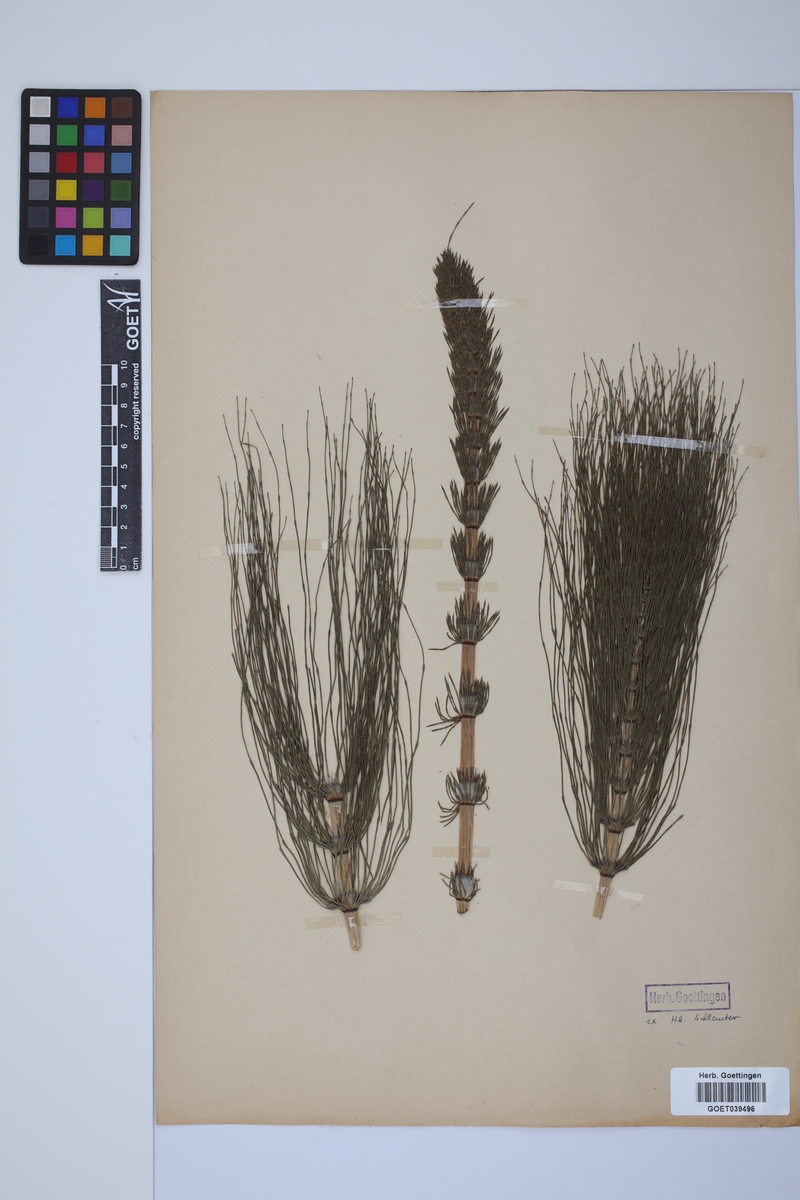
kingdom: Plantae
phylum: Tracheophyta
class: Polypodiopsida
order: Equisetales
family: Equisetaceae
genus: Equisetum
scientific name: Equisetum telmateia
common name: Great horsetail
